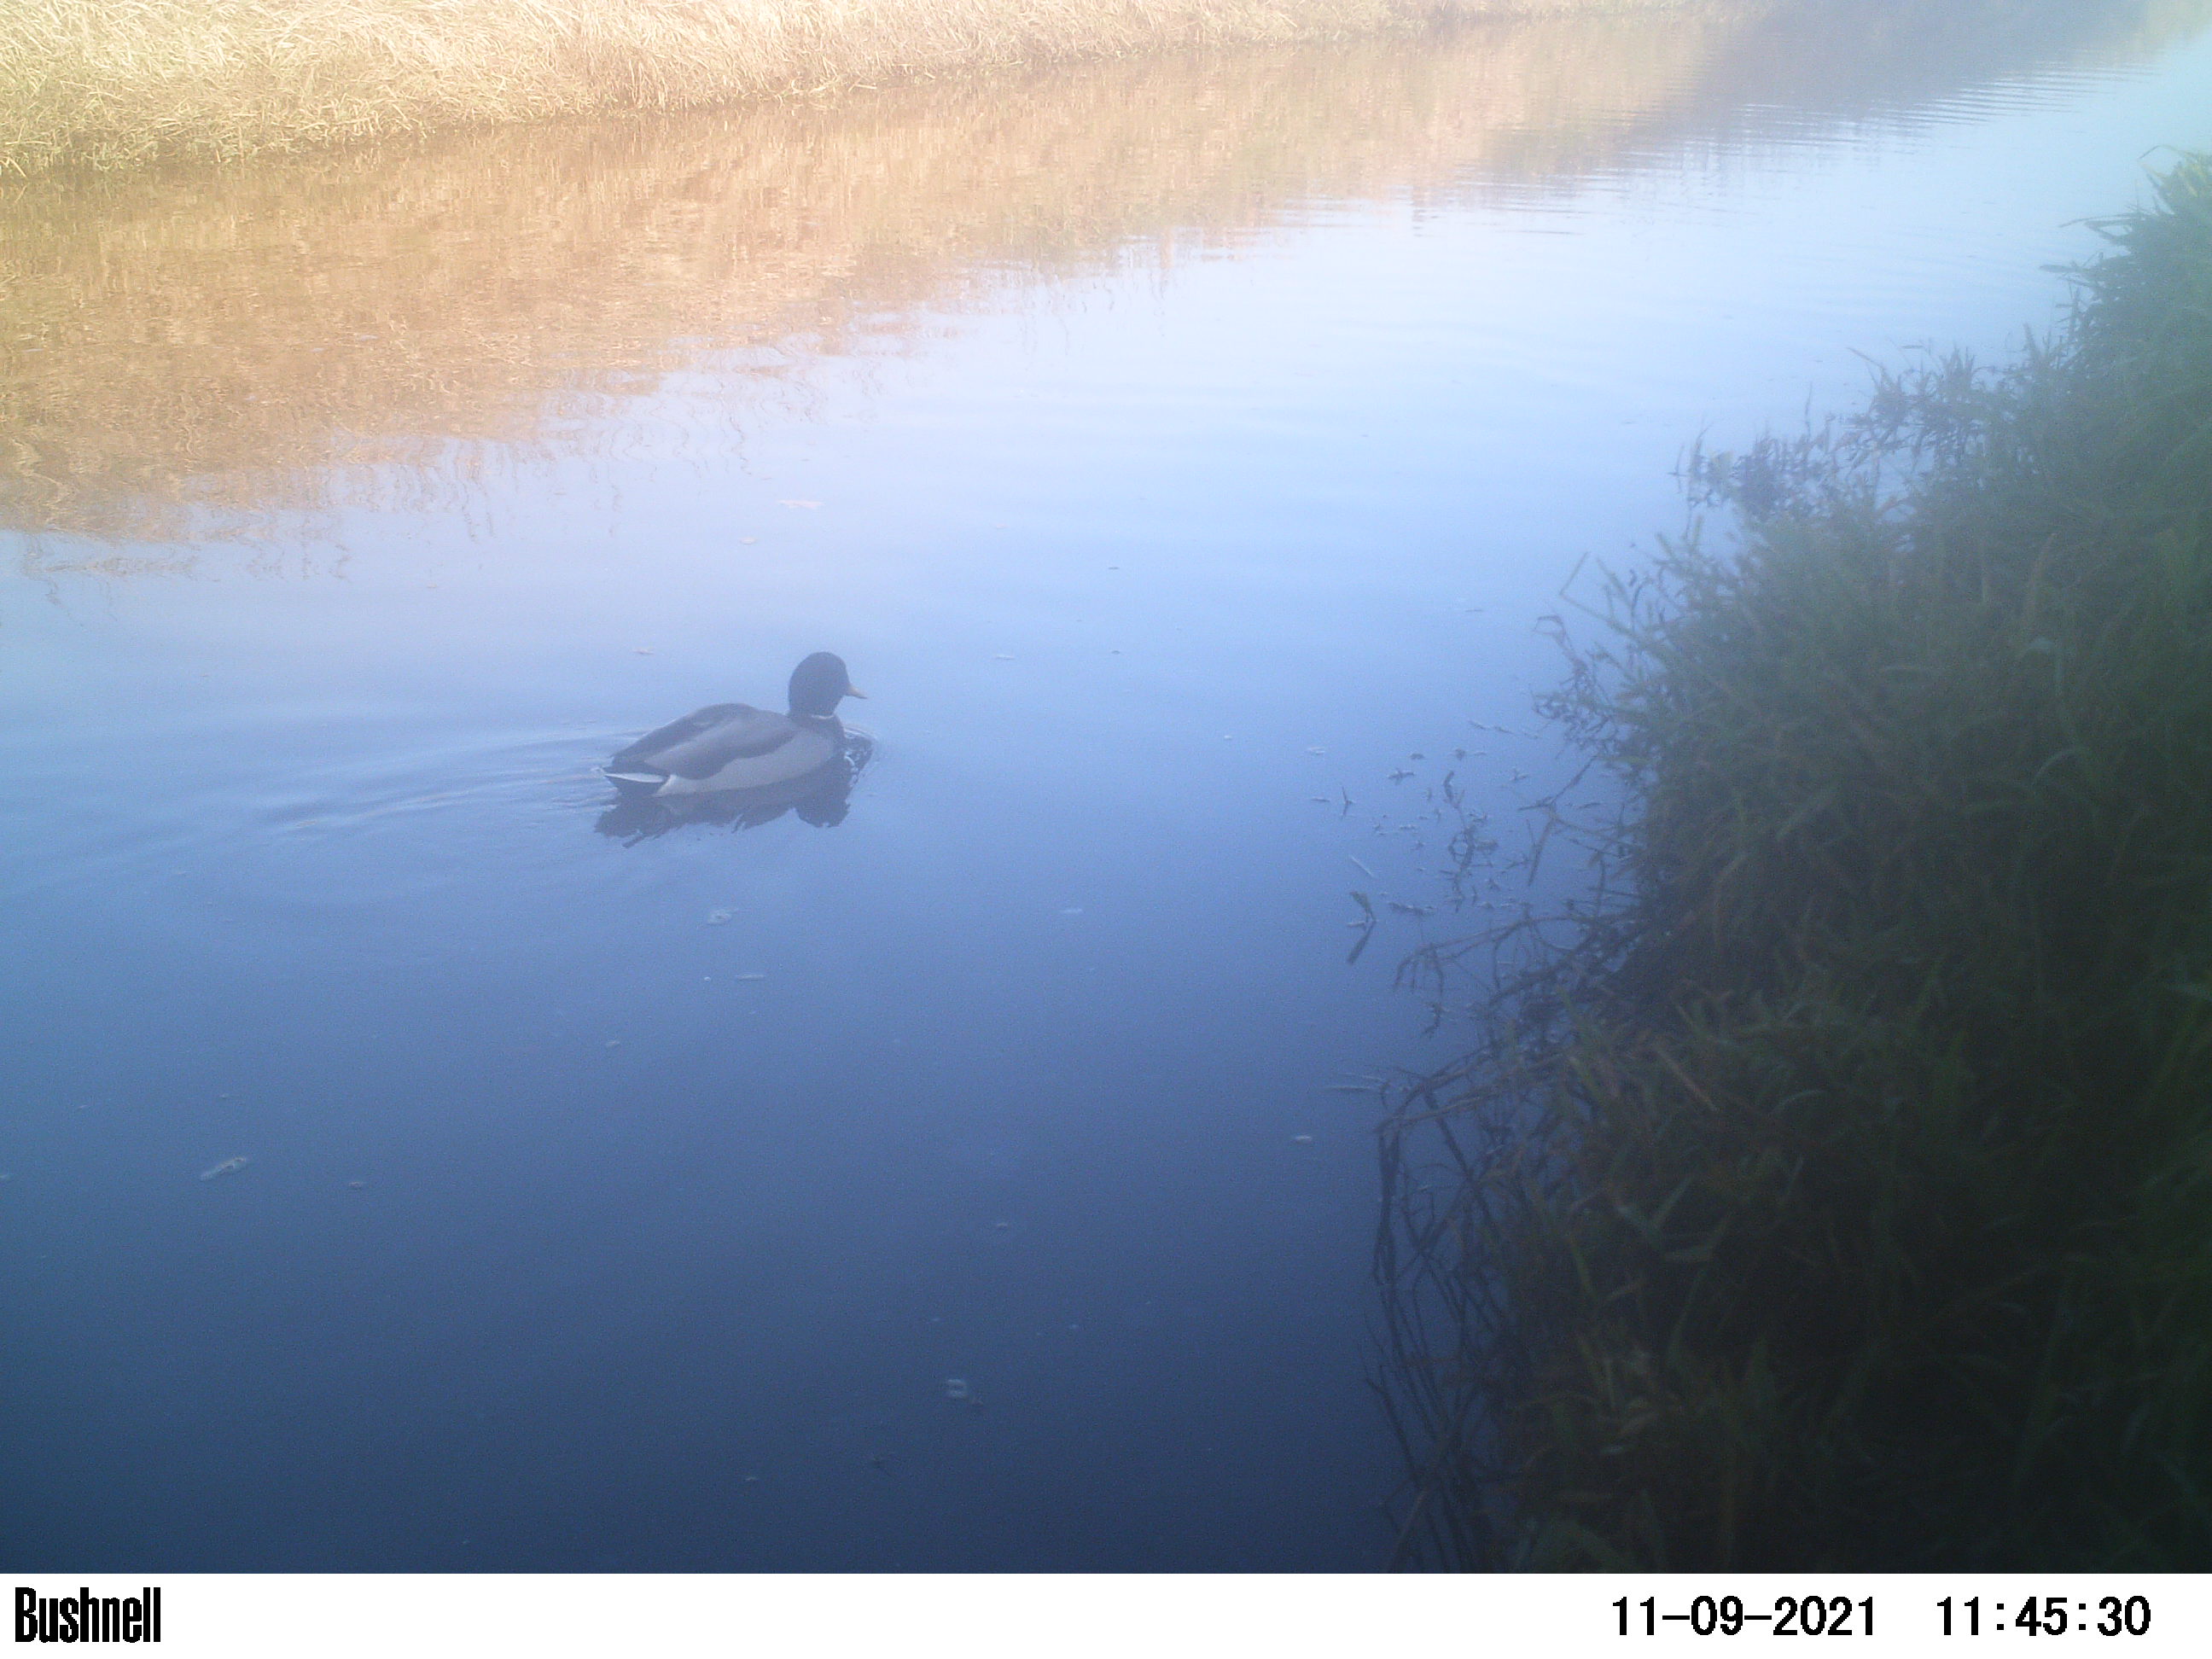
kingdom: Animalia
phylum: Chordata
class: Aves
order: Anseriformes
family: Anatidae
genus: Anas
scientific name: Anas
